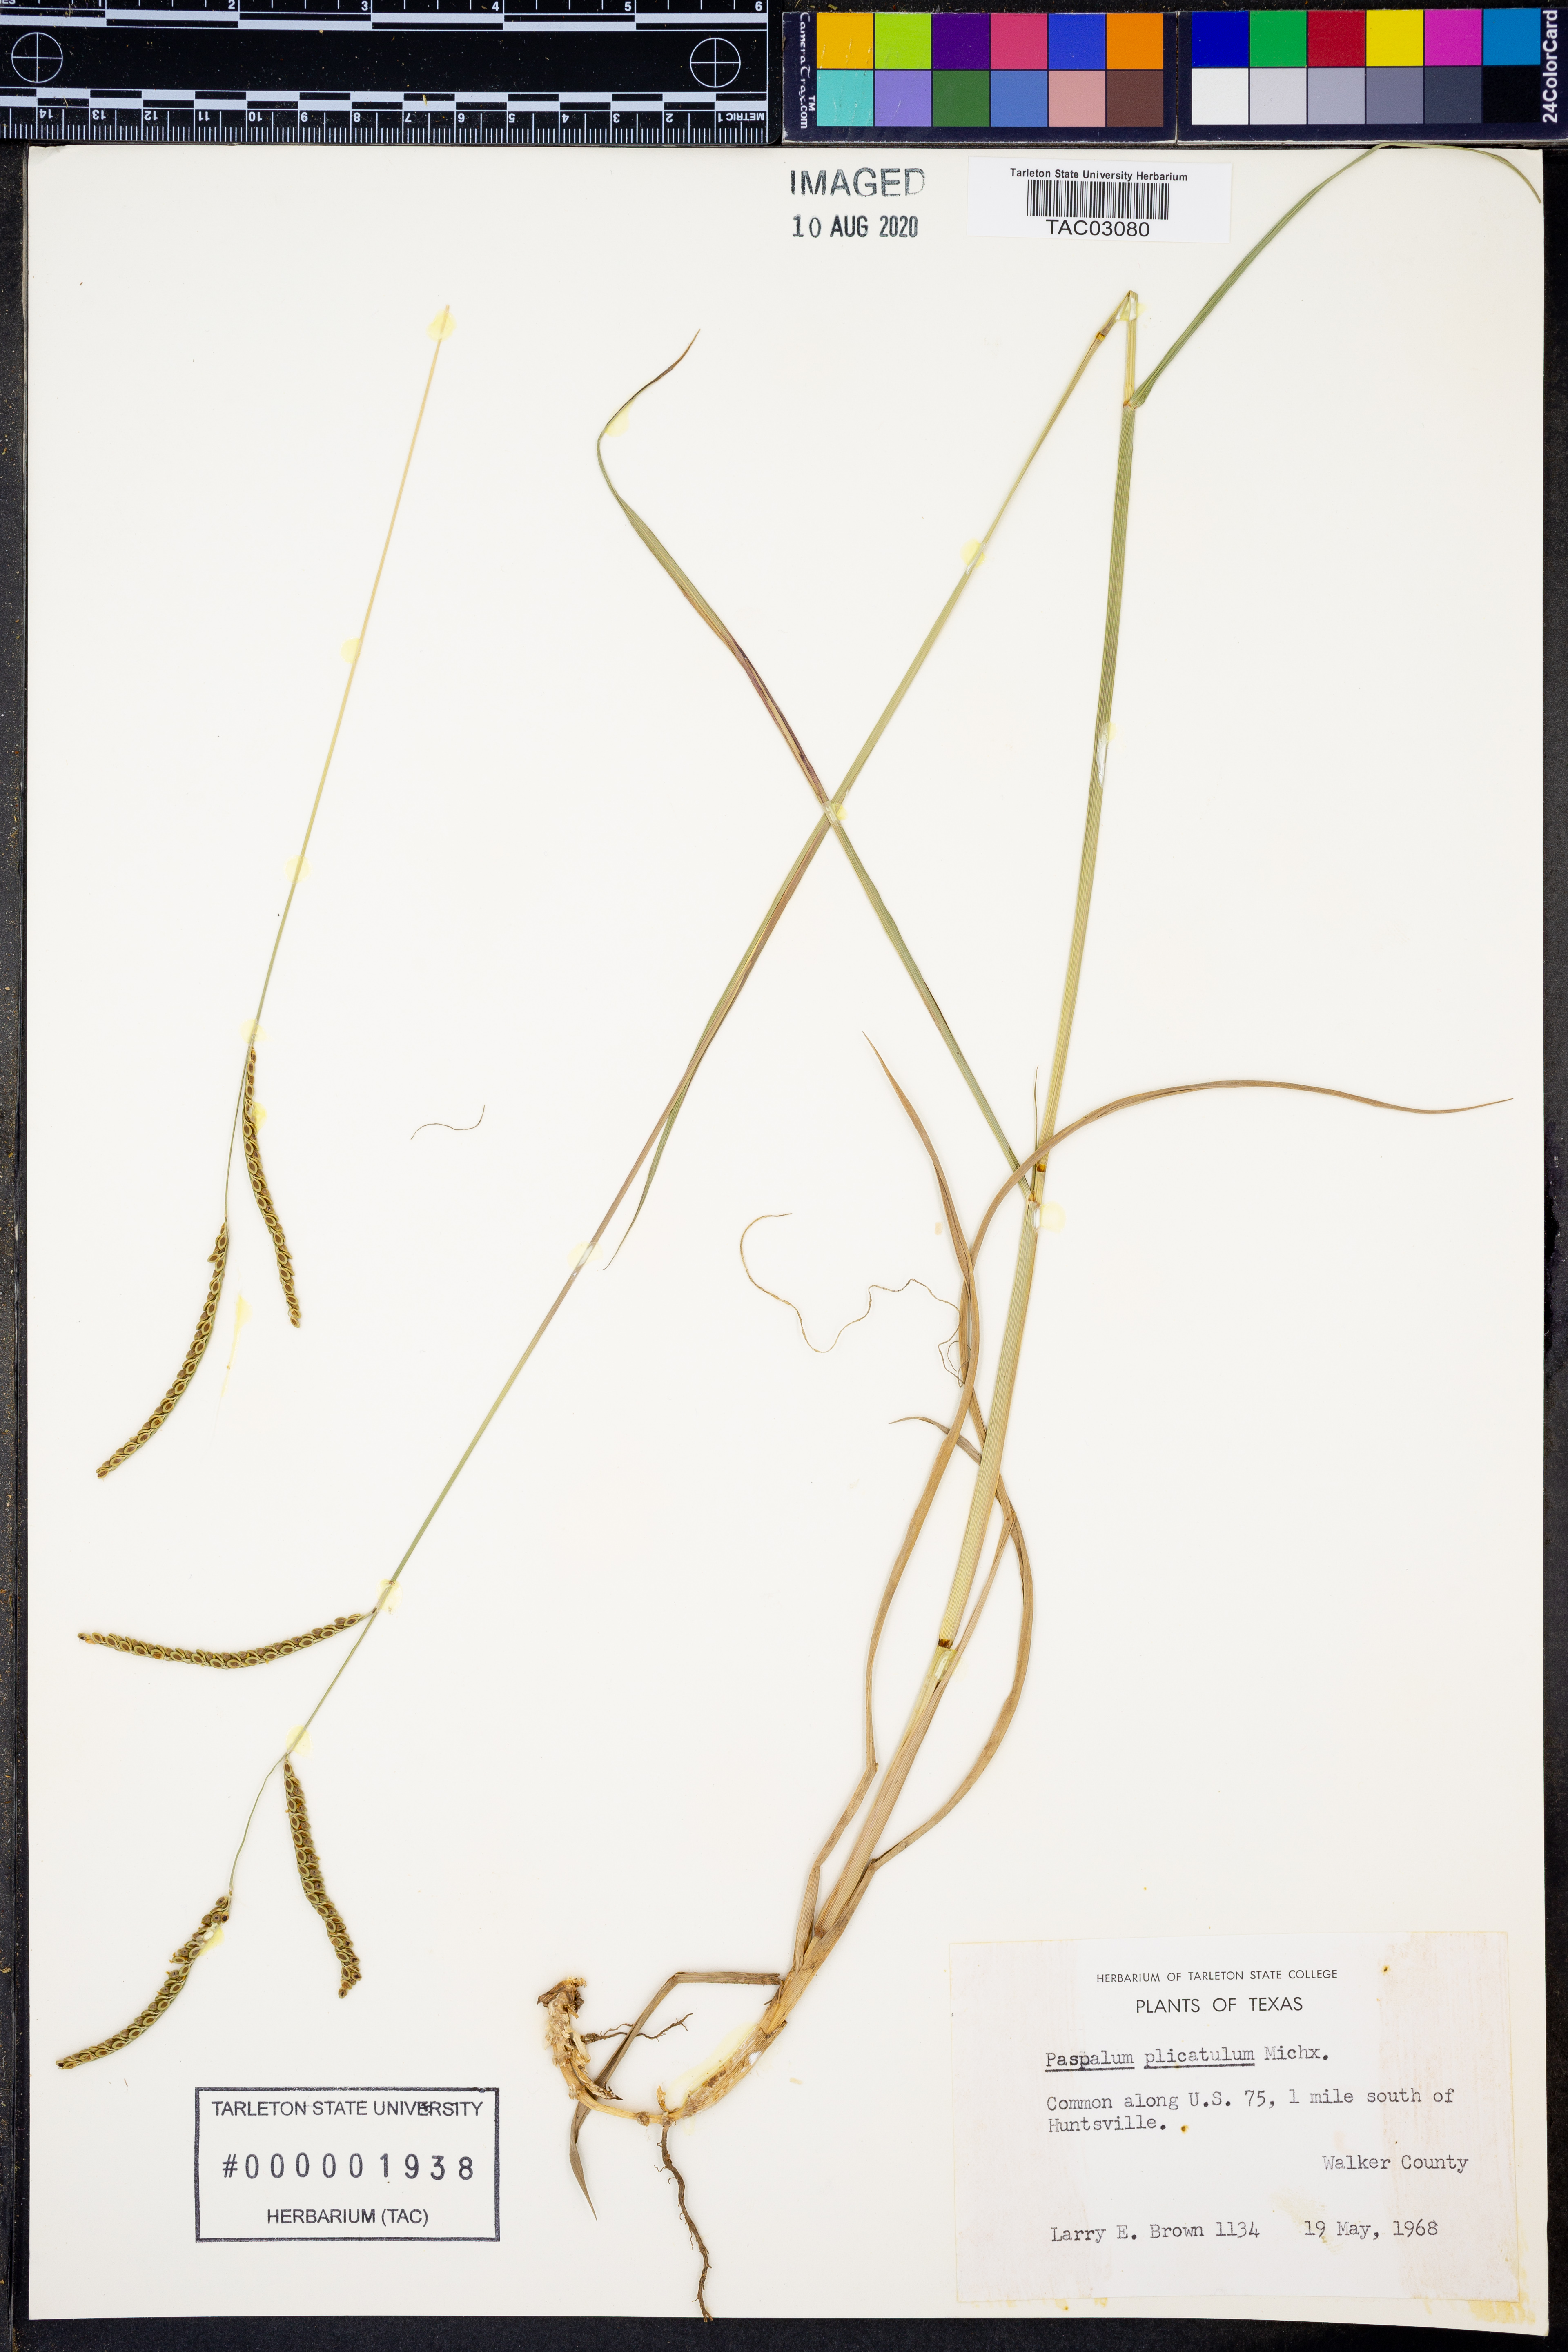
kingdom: Plantae
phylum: Tracheophyta
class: Liliopsida
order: Poales
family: Poaceae
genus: Paspalum
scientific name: Paspalum plicatulum
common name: Top paspalum
